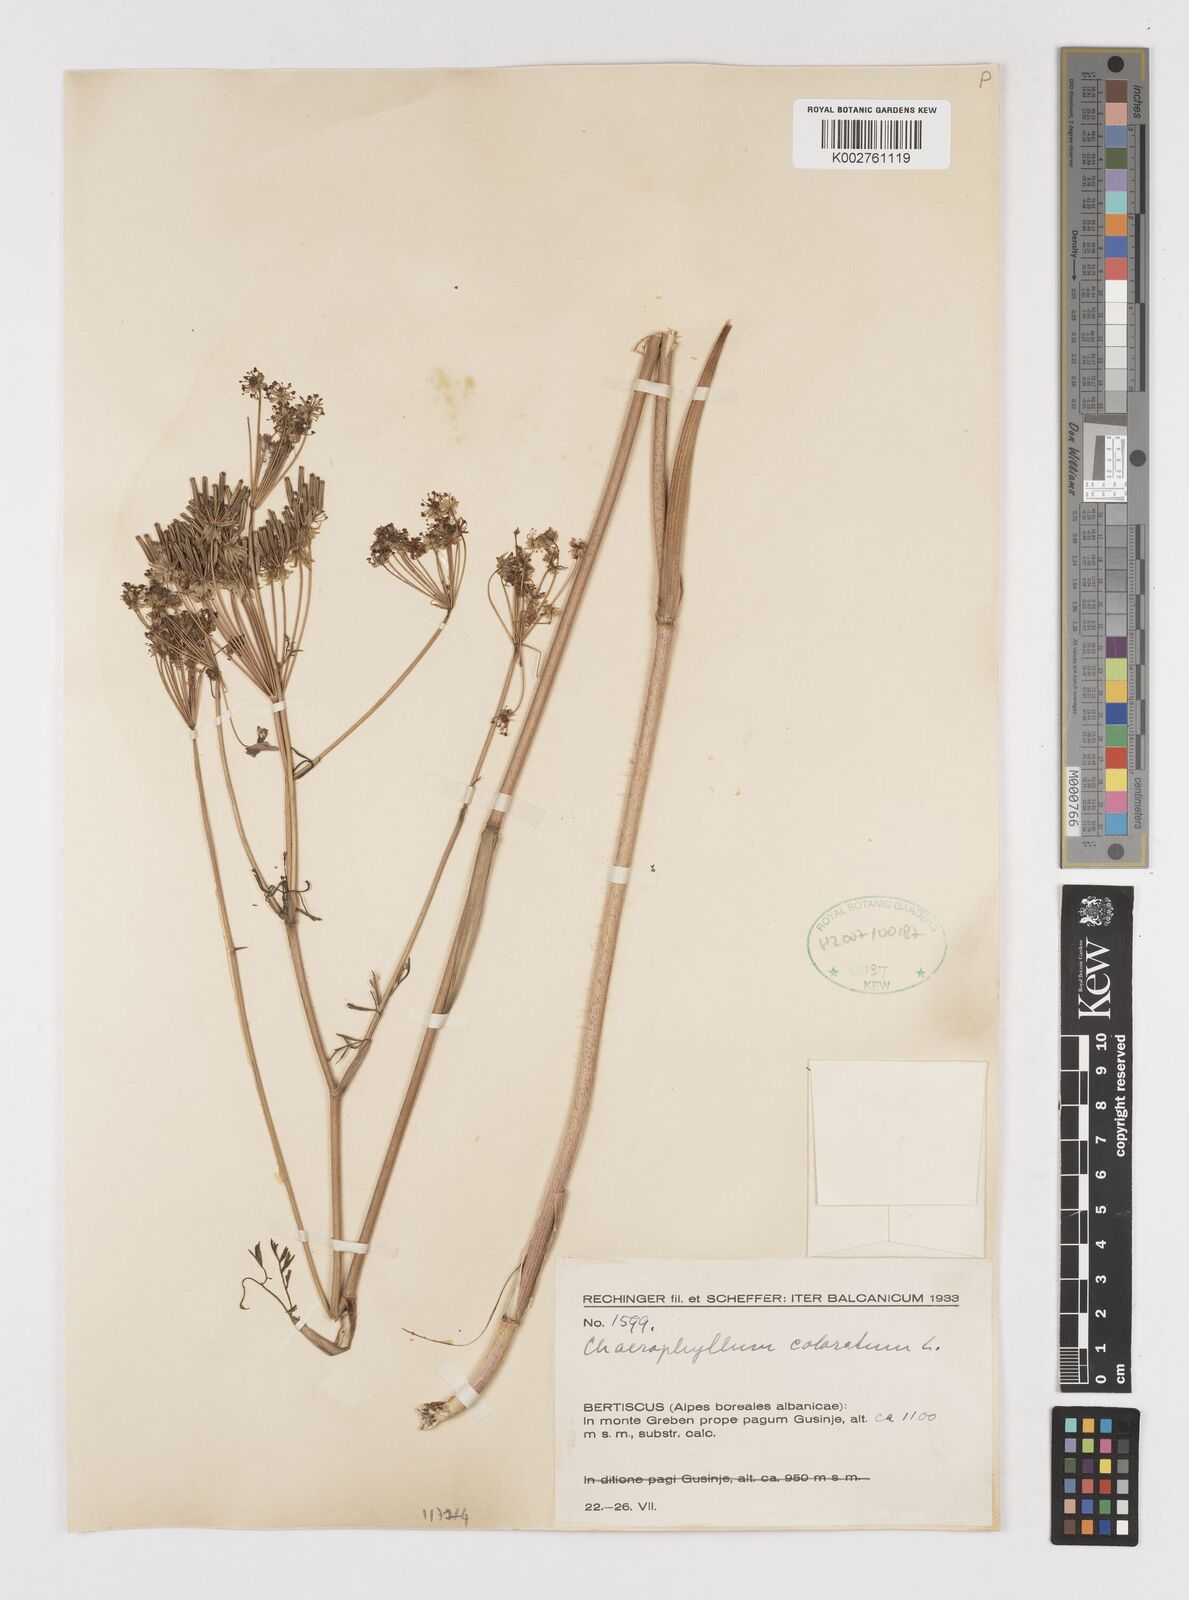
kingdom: Plantae
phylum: Tracheophyta
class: Magnoliopsida
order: Apiales
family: Apiaceae
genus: Chaerophyllum
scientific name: Chaerophyllum coloratum
